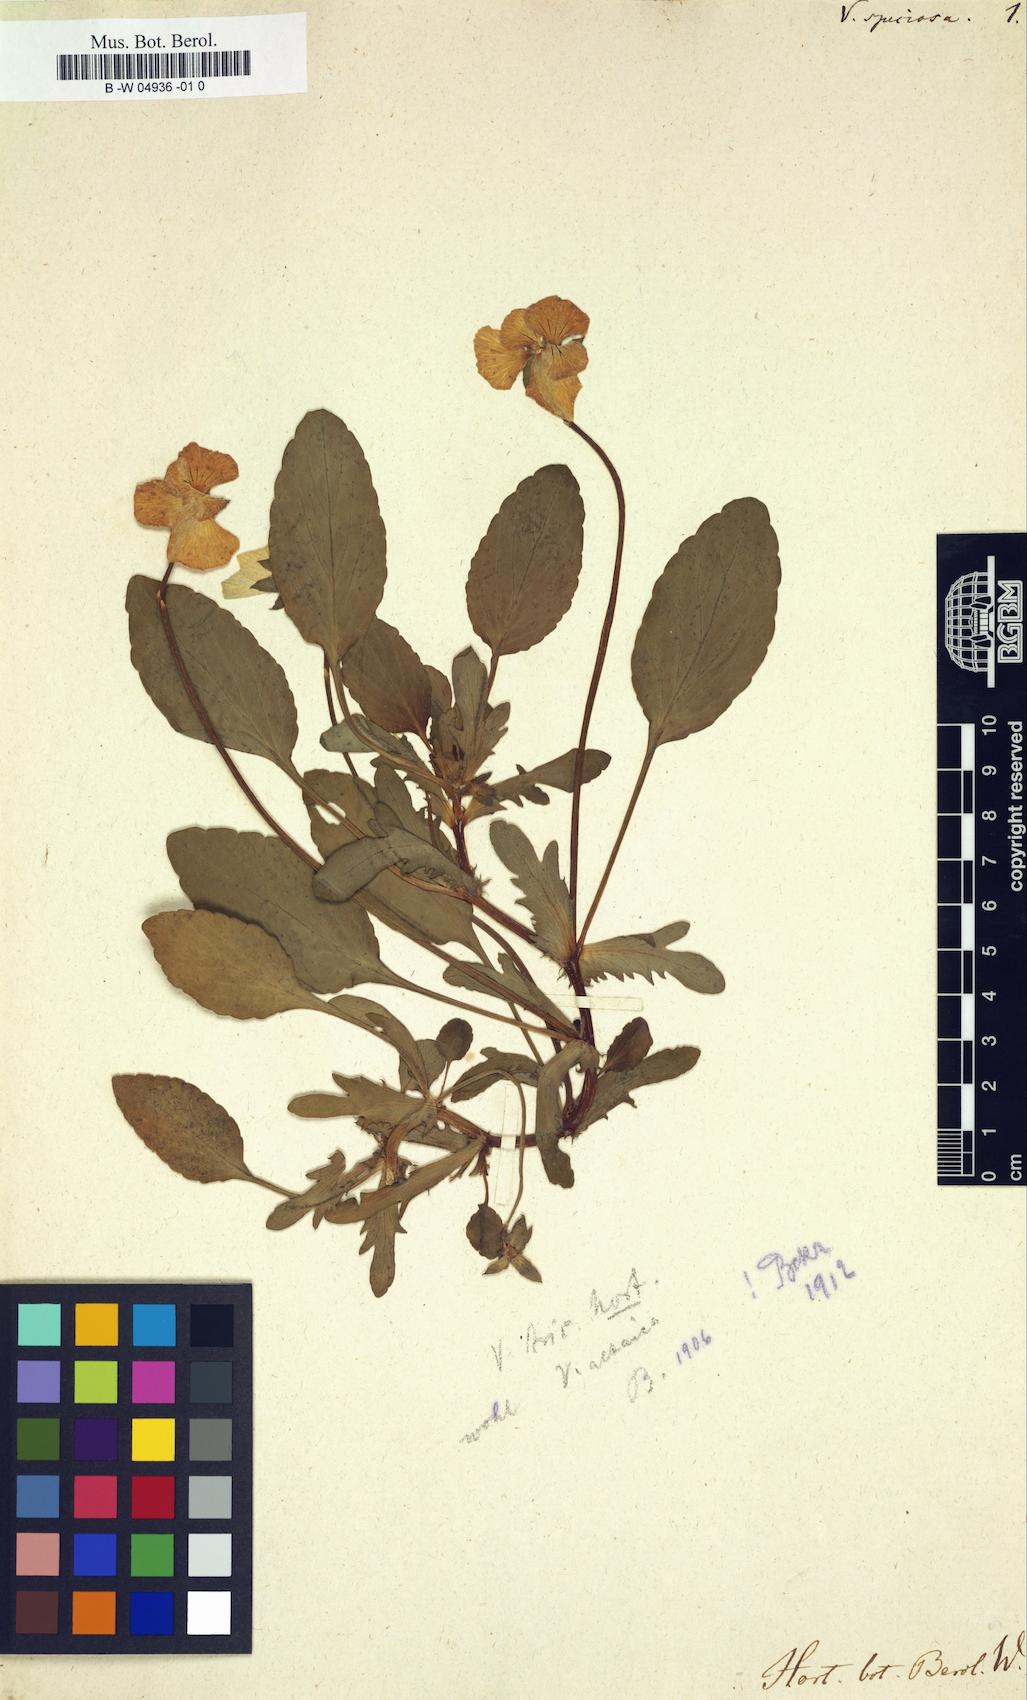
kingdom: Plantae
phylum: Tracheophyta
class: Magnoliopsida
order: Malpighiales
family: Violaceae
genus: Viola
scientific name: Viola
